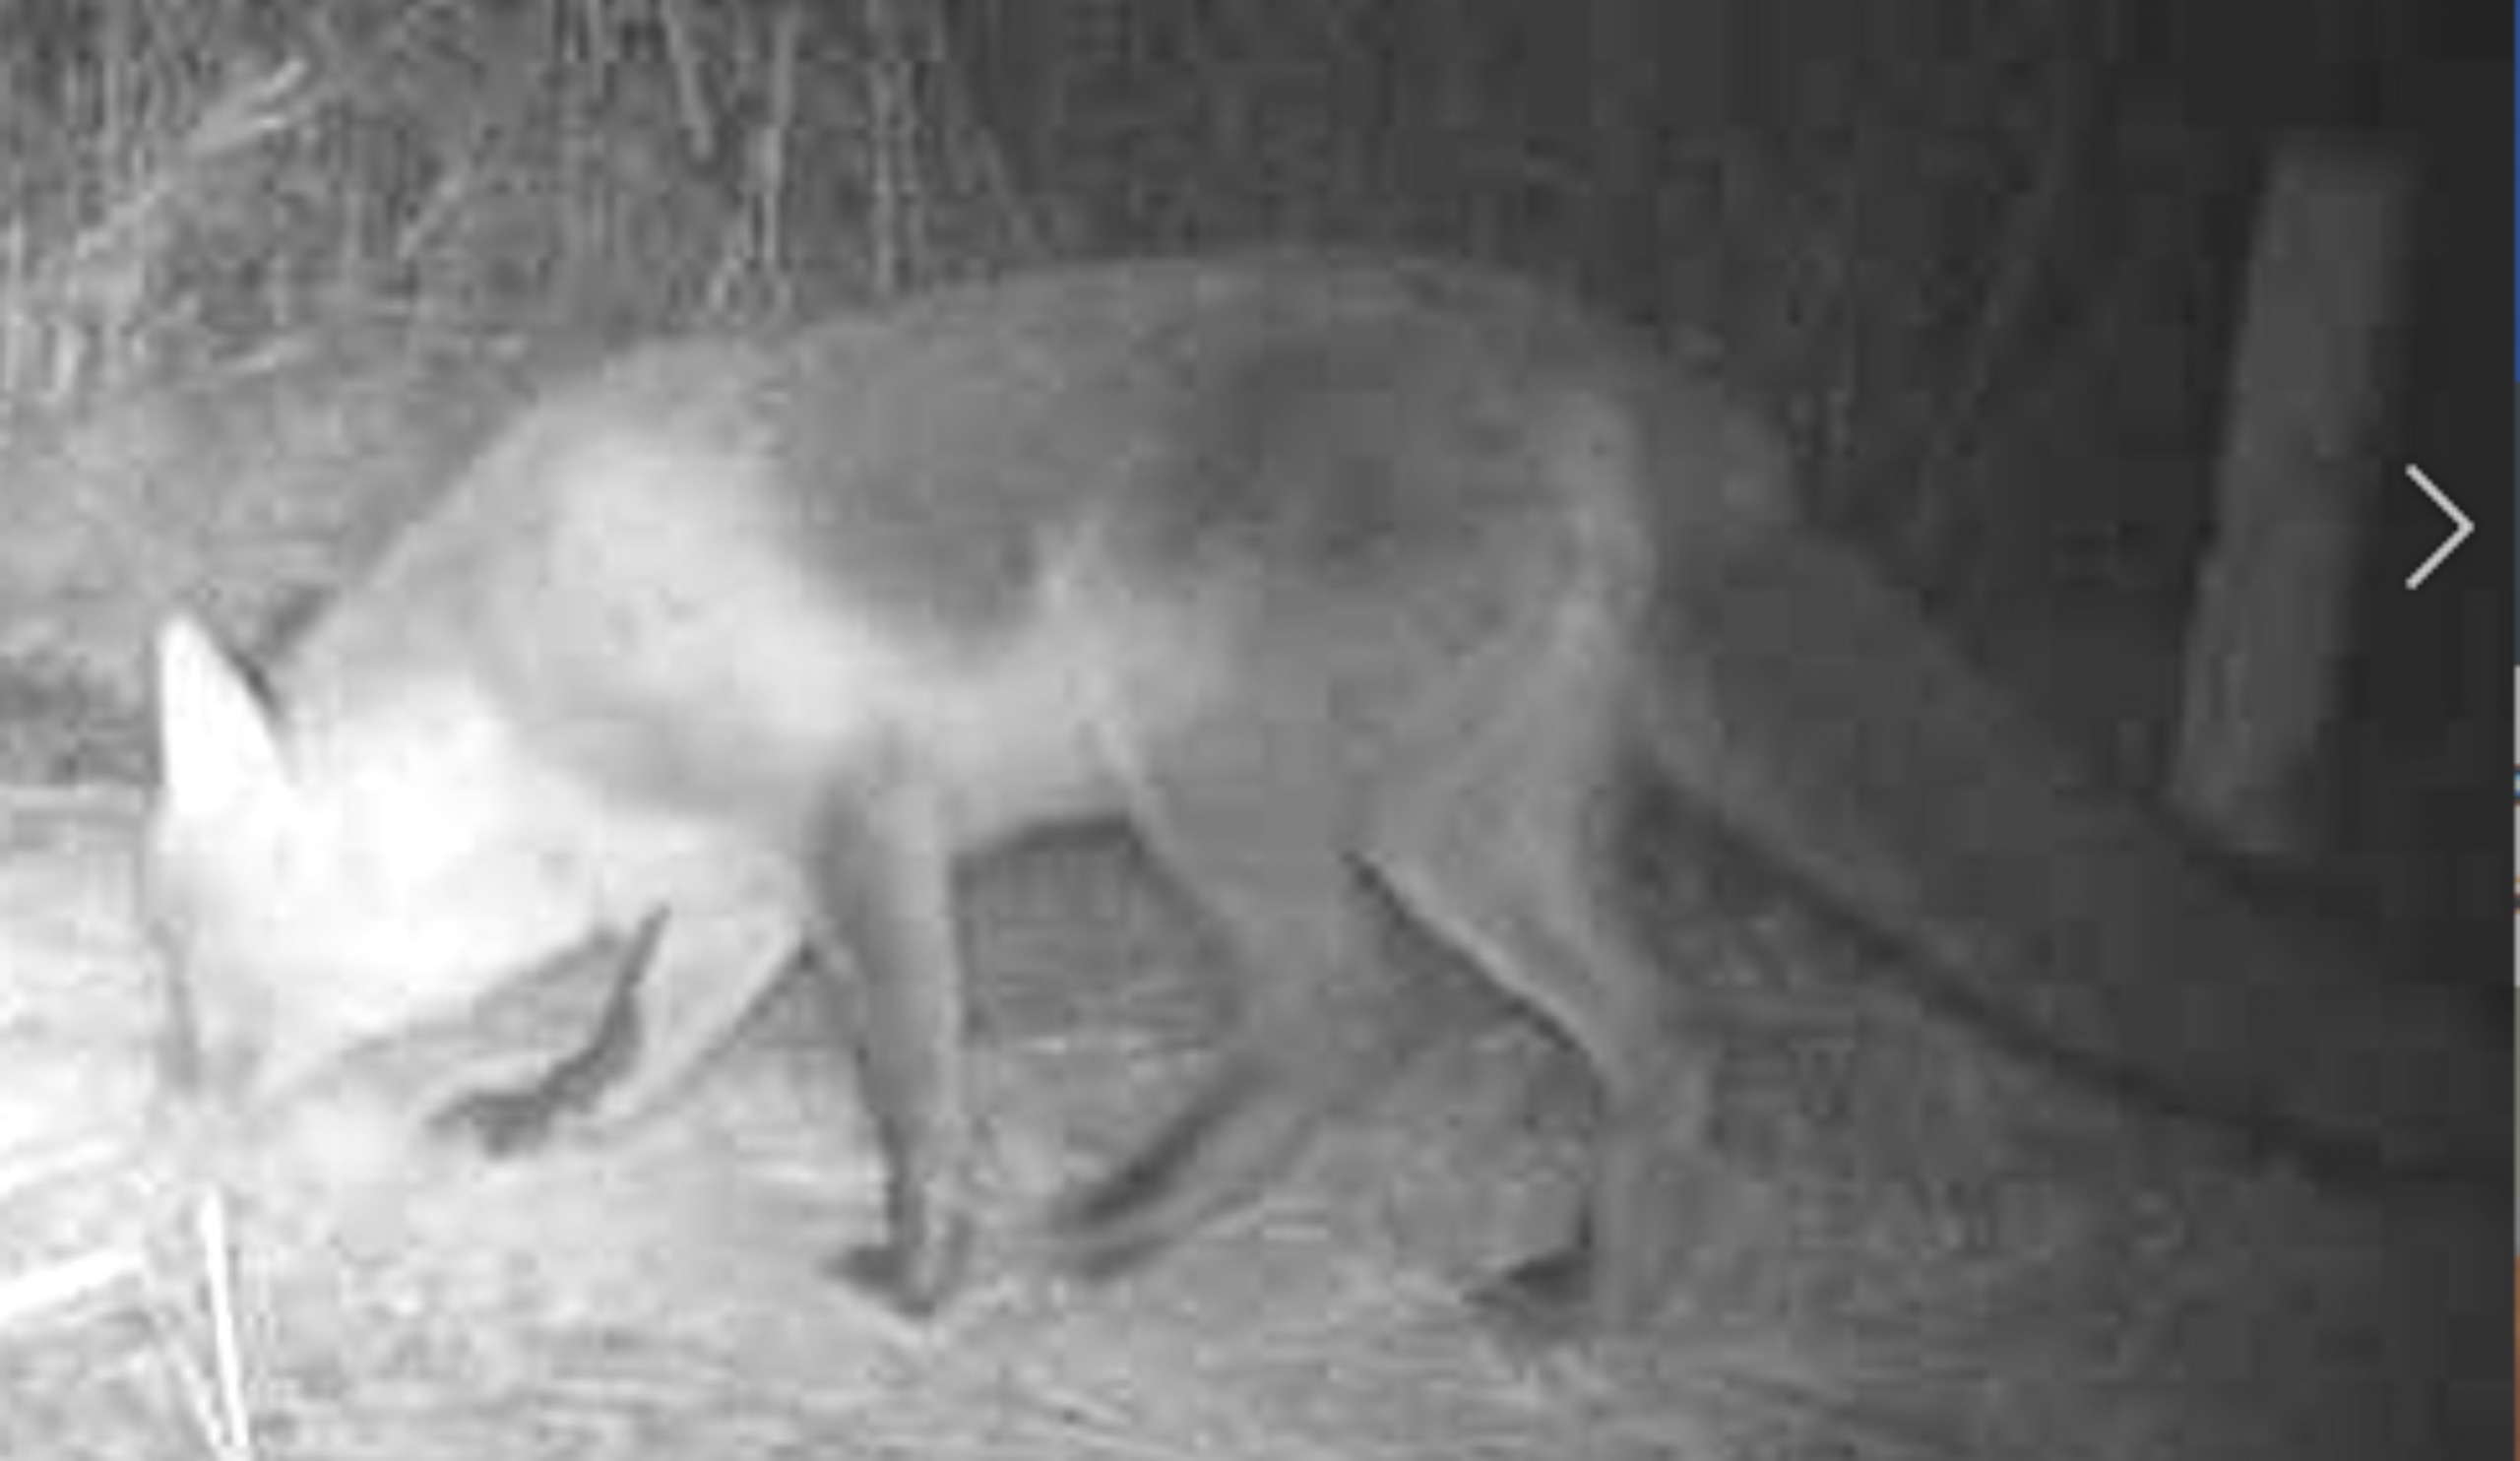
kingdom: Animalia
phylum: Chordata
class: Mammalia
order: Carnivora
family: Canidae
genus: Vulpes
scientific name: Vulpes vulpes
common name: Ræv
